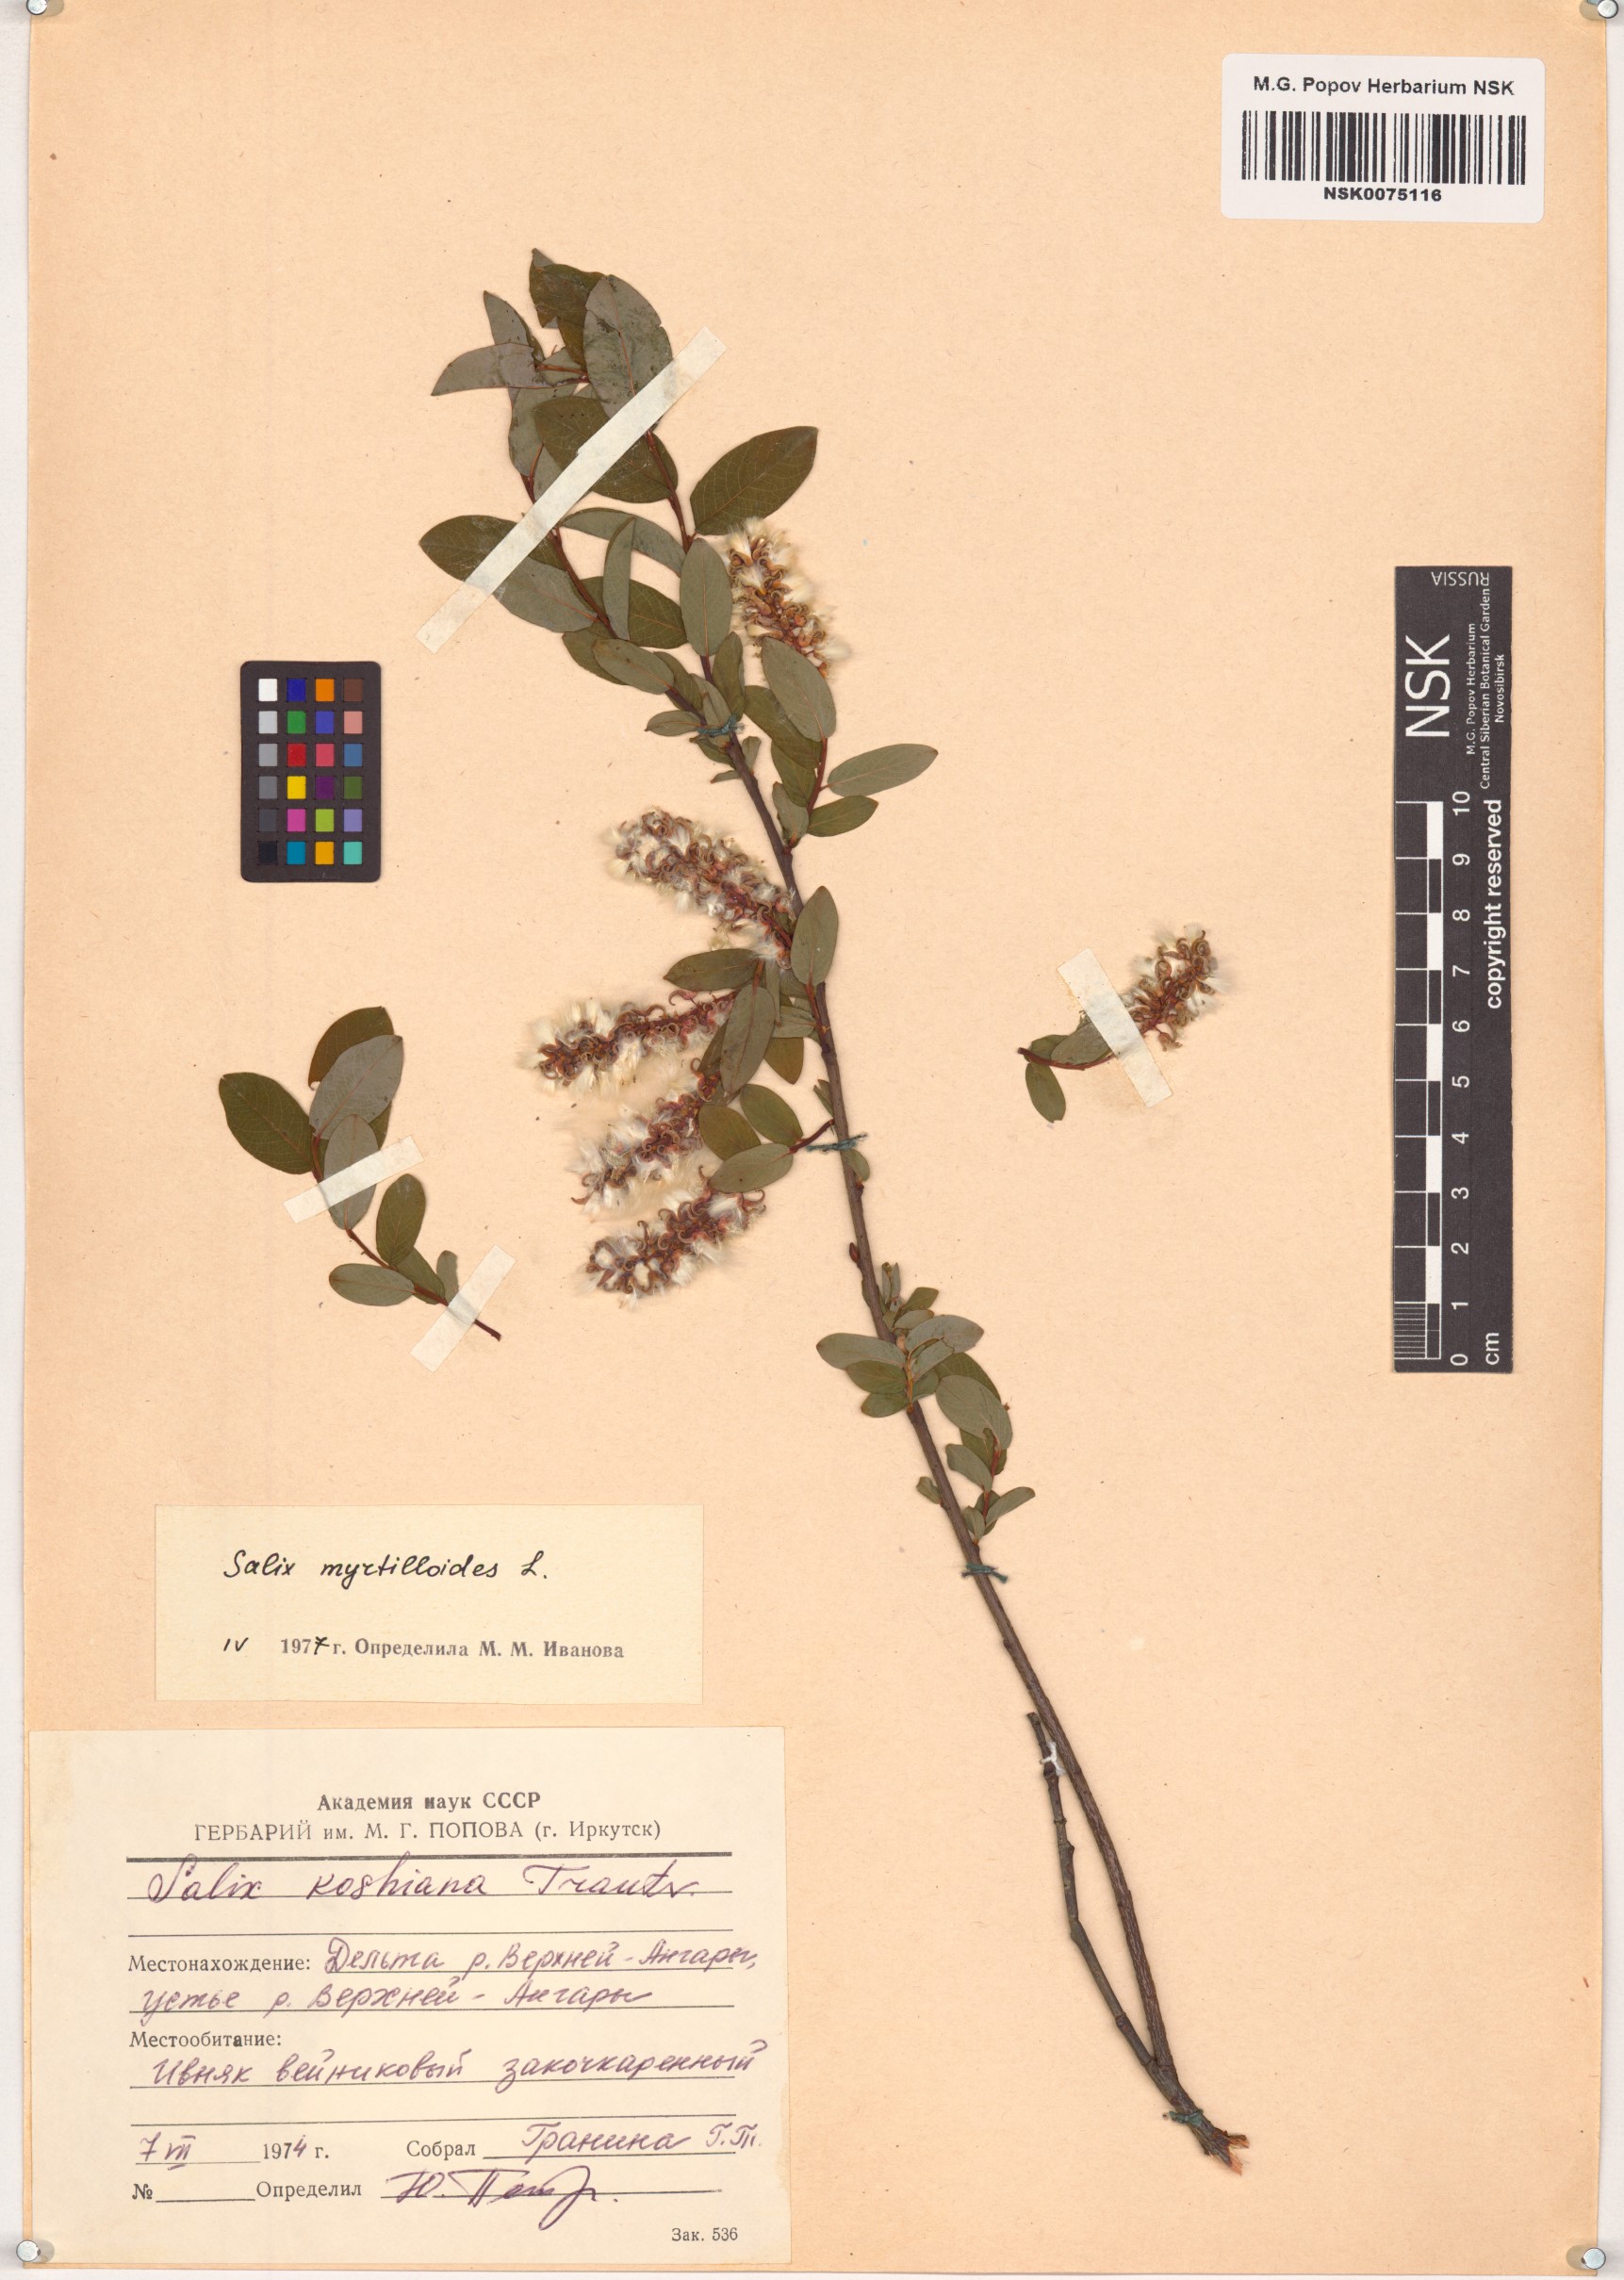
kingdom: Plantae
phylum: Tracheophyta
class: Magnoliopsida
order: Malpighiales
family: Salicaceae
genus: Salix
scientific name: Salix myrtilloides
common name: Myrtle-leaved willow
